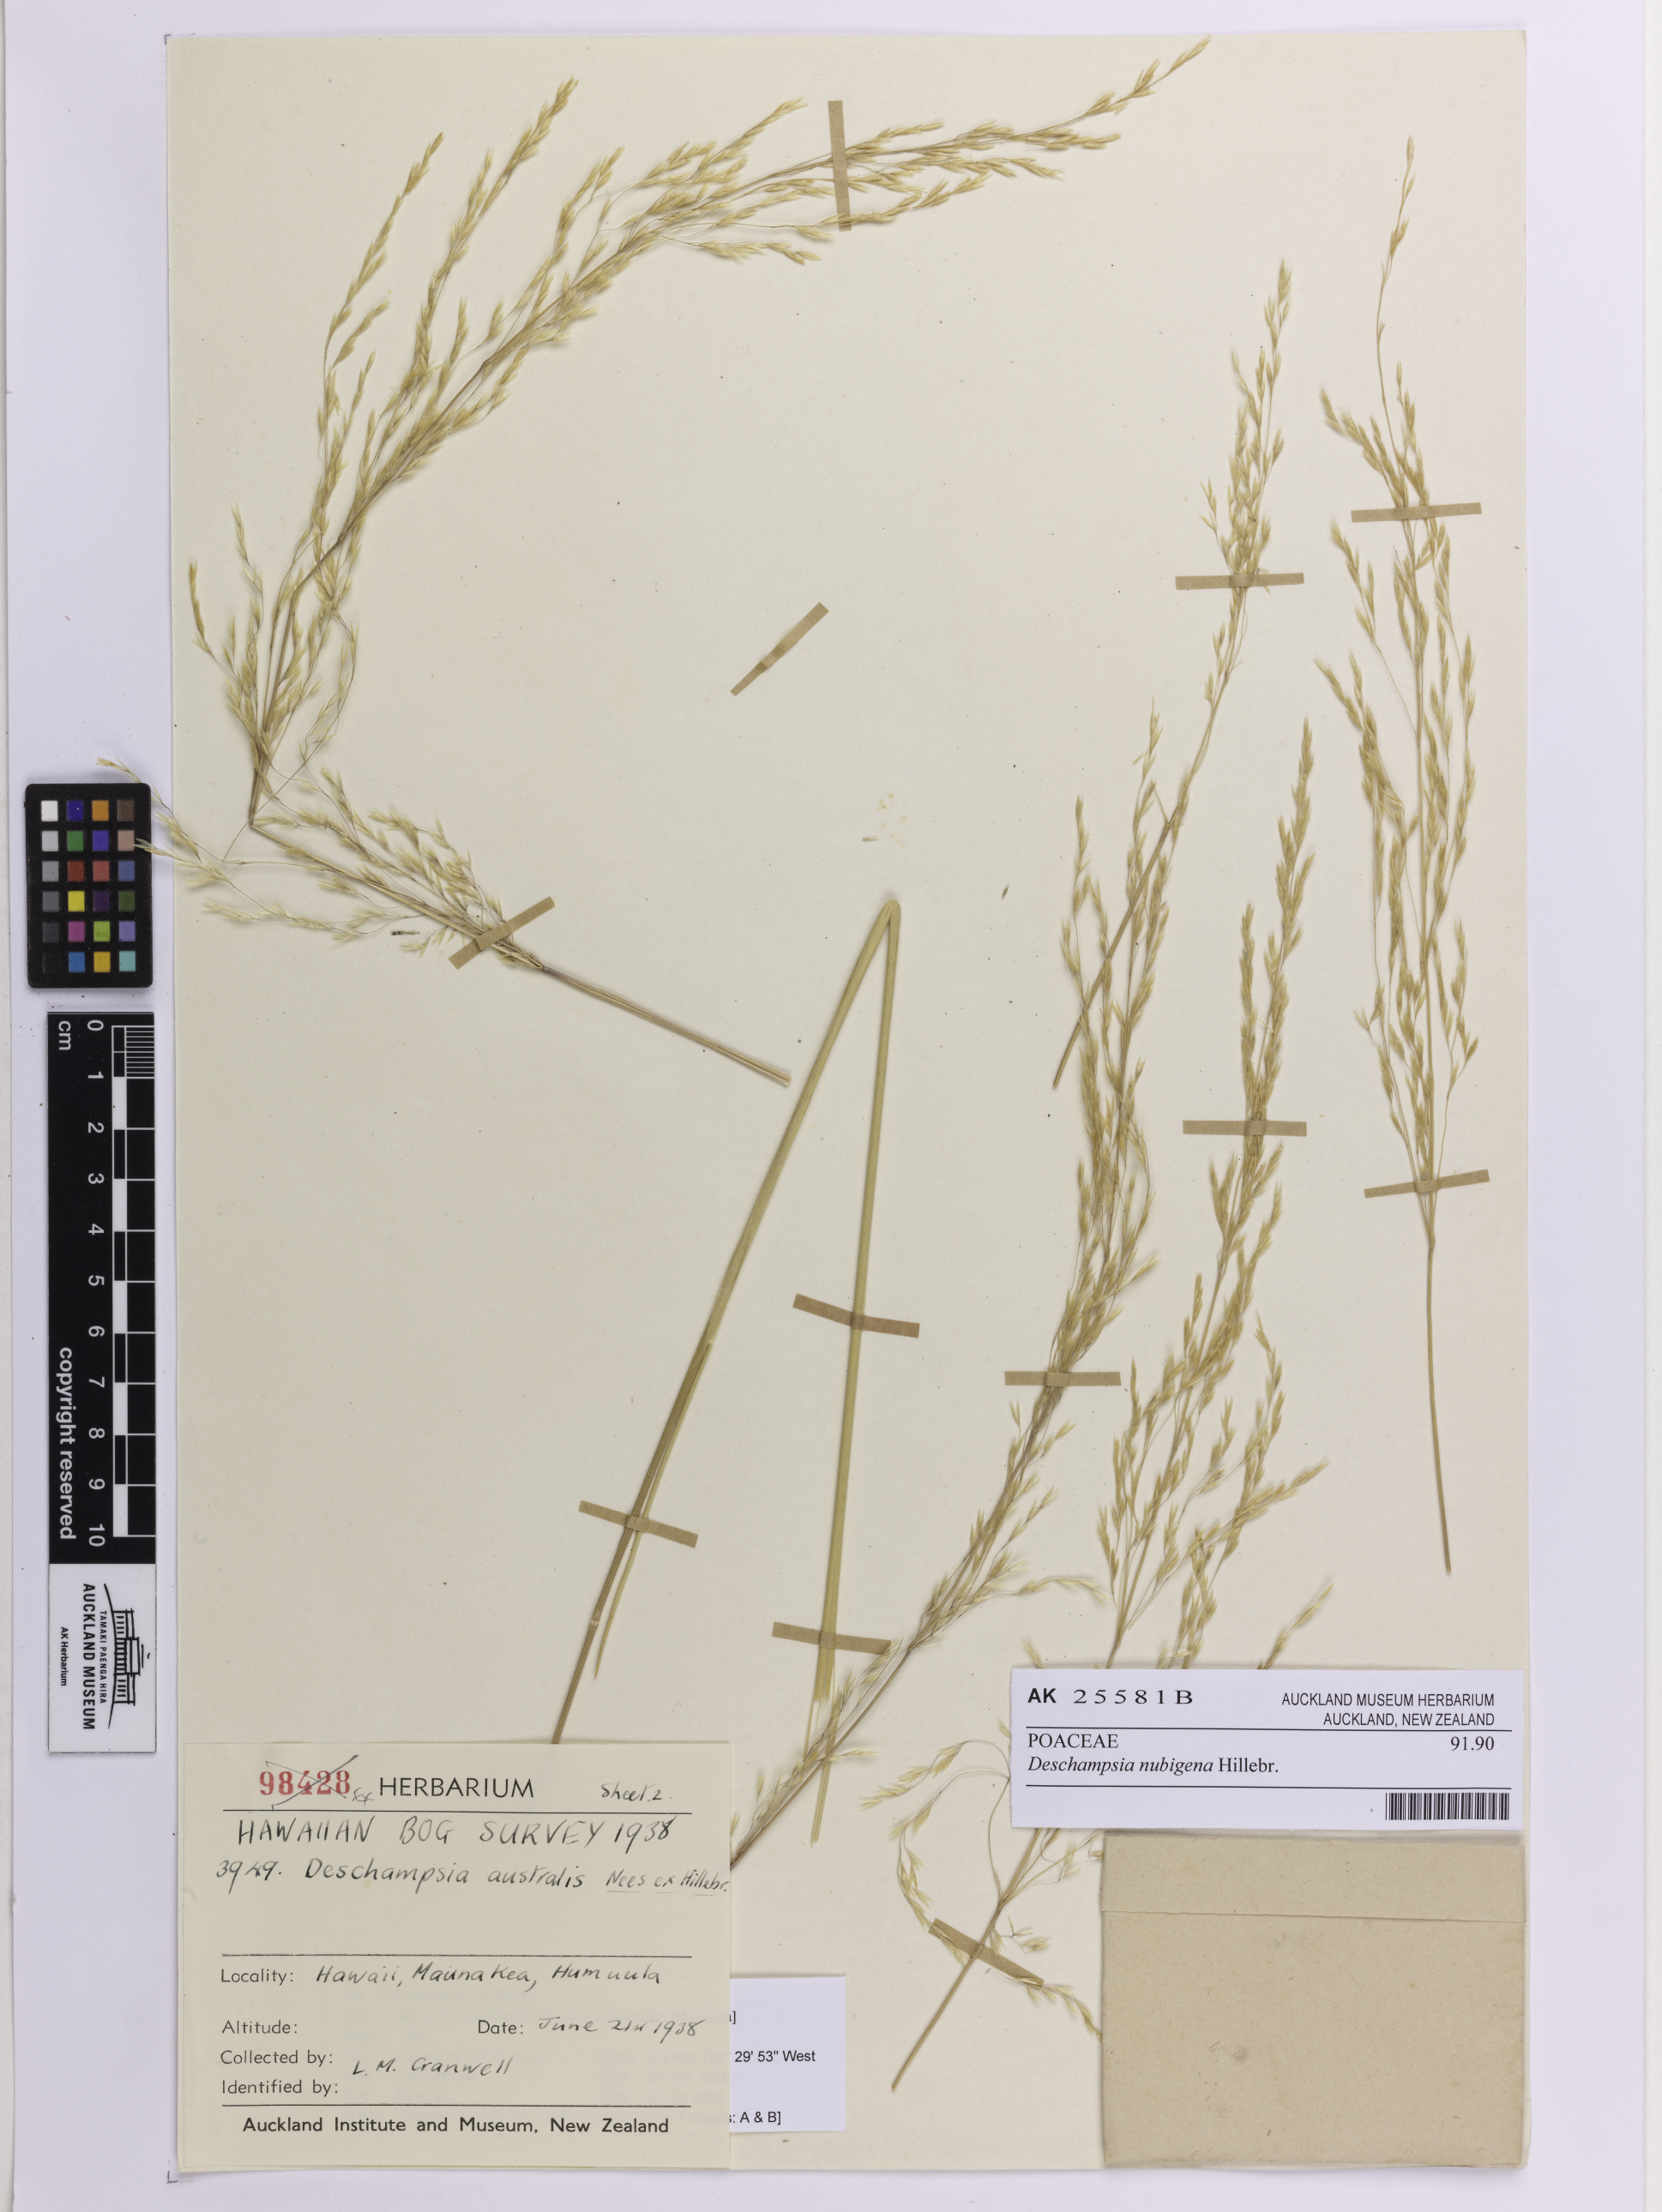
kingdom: Plantae
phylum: Tracheophyta
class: Liliopsida
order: Poales
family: Poaceae
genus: Deschampsia
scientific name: Deschampsia nubigena
